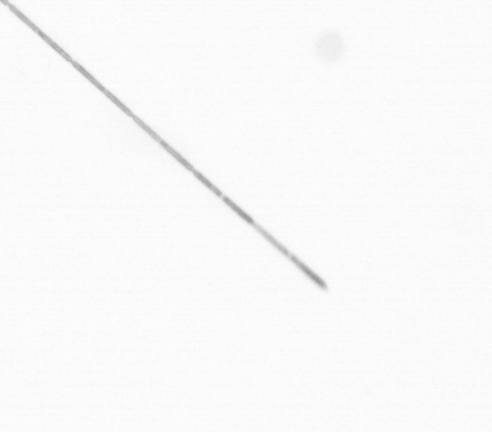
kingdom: Chromista
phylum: Ochrophyta
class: Bacillariophyceae
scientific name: Bacillariophyceae
